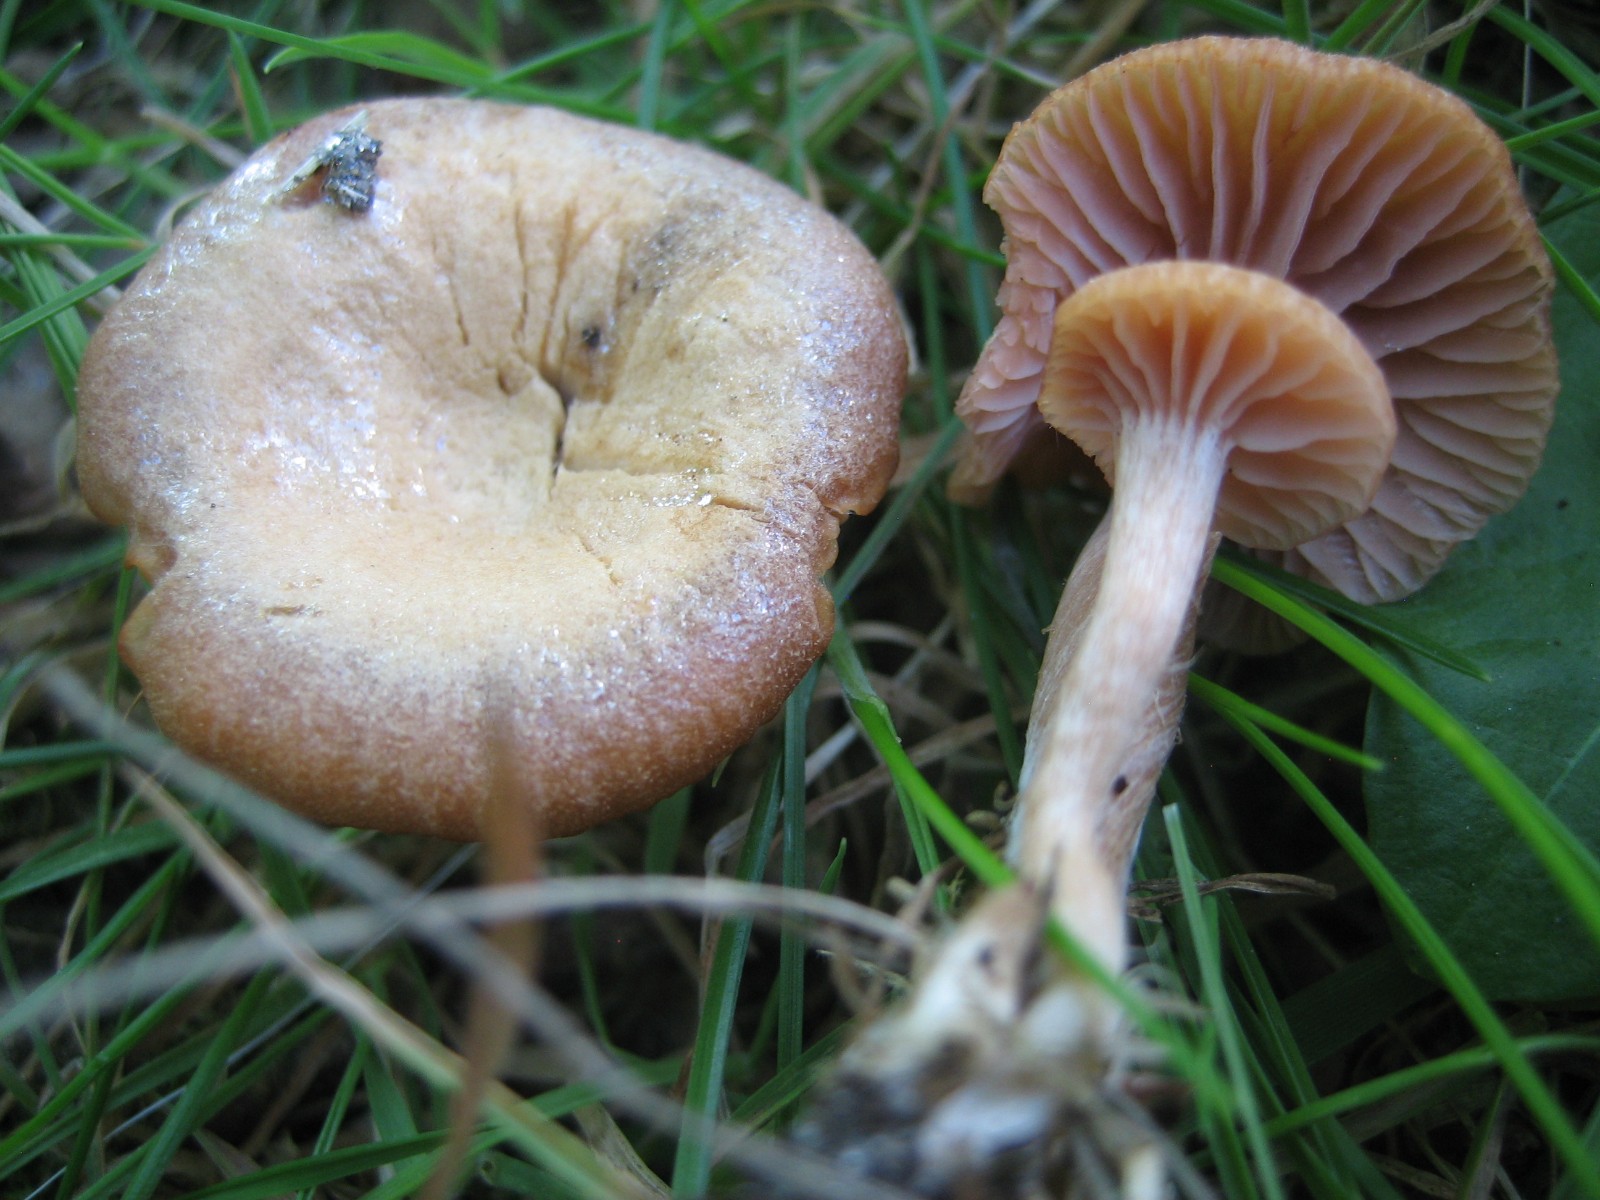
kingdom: Fungi
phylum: Basidiomycota
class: Agaricomycetes
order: Agaricales
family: Hydnangiaceae
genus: Laccaria
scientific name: Laccaria laccata
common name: rød ametysthat
